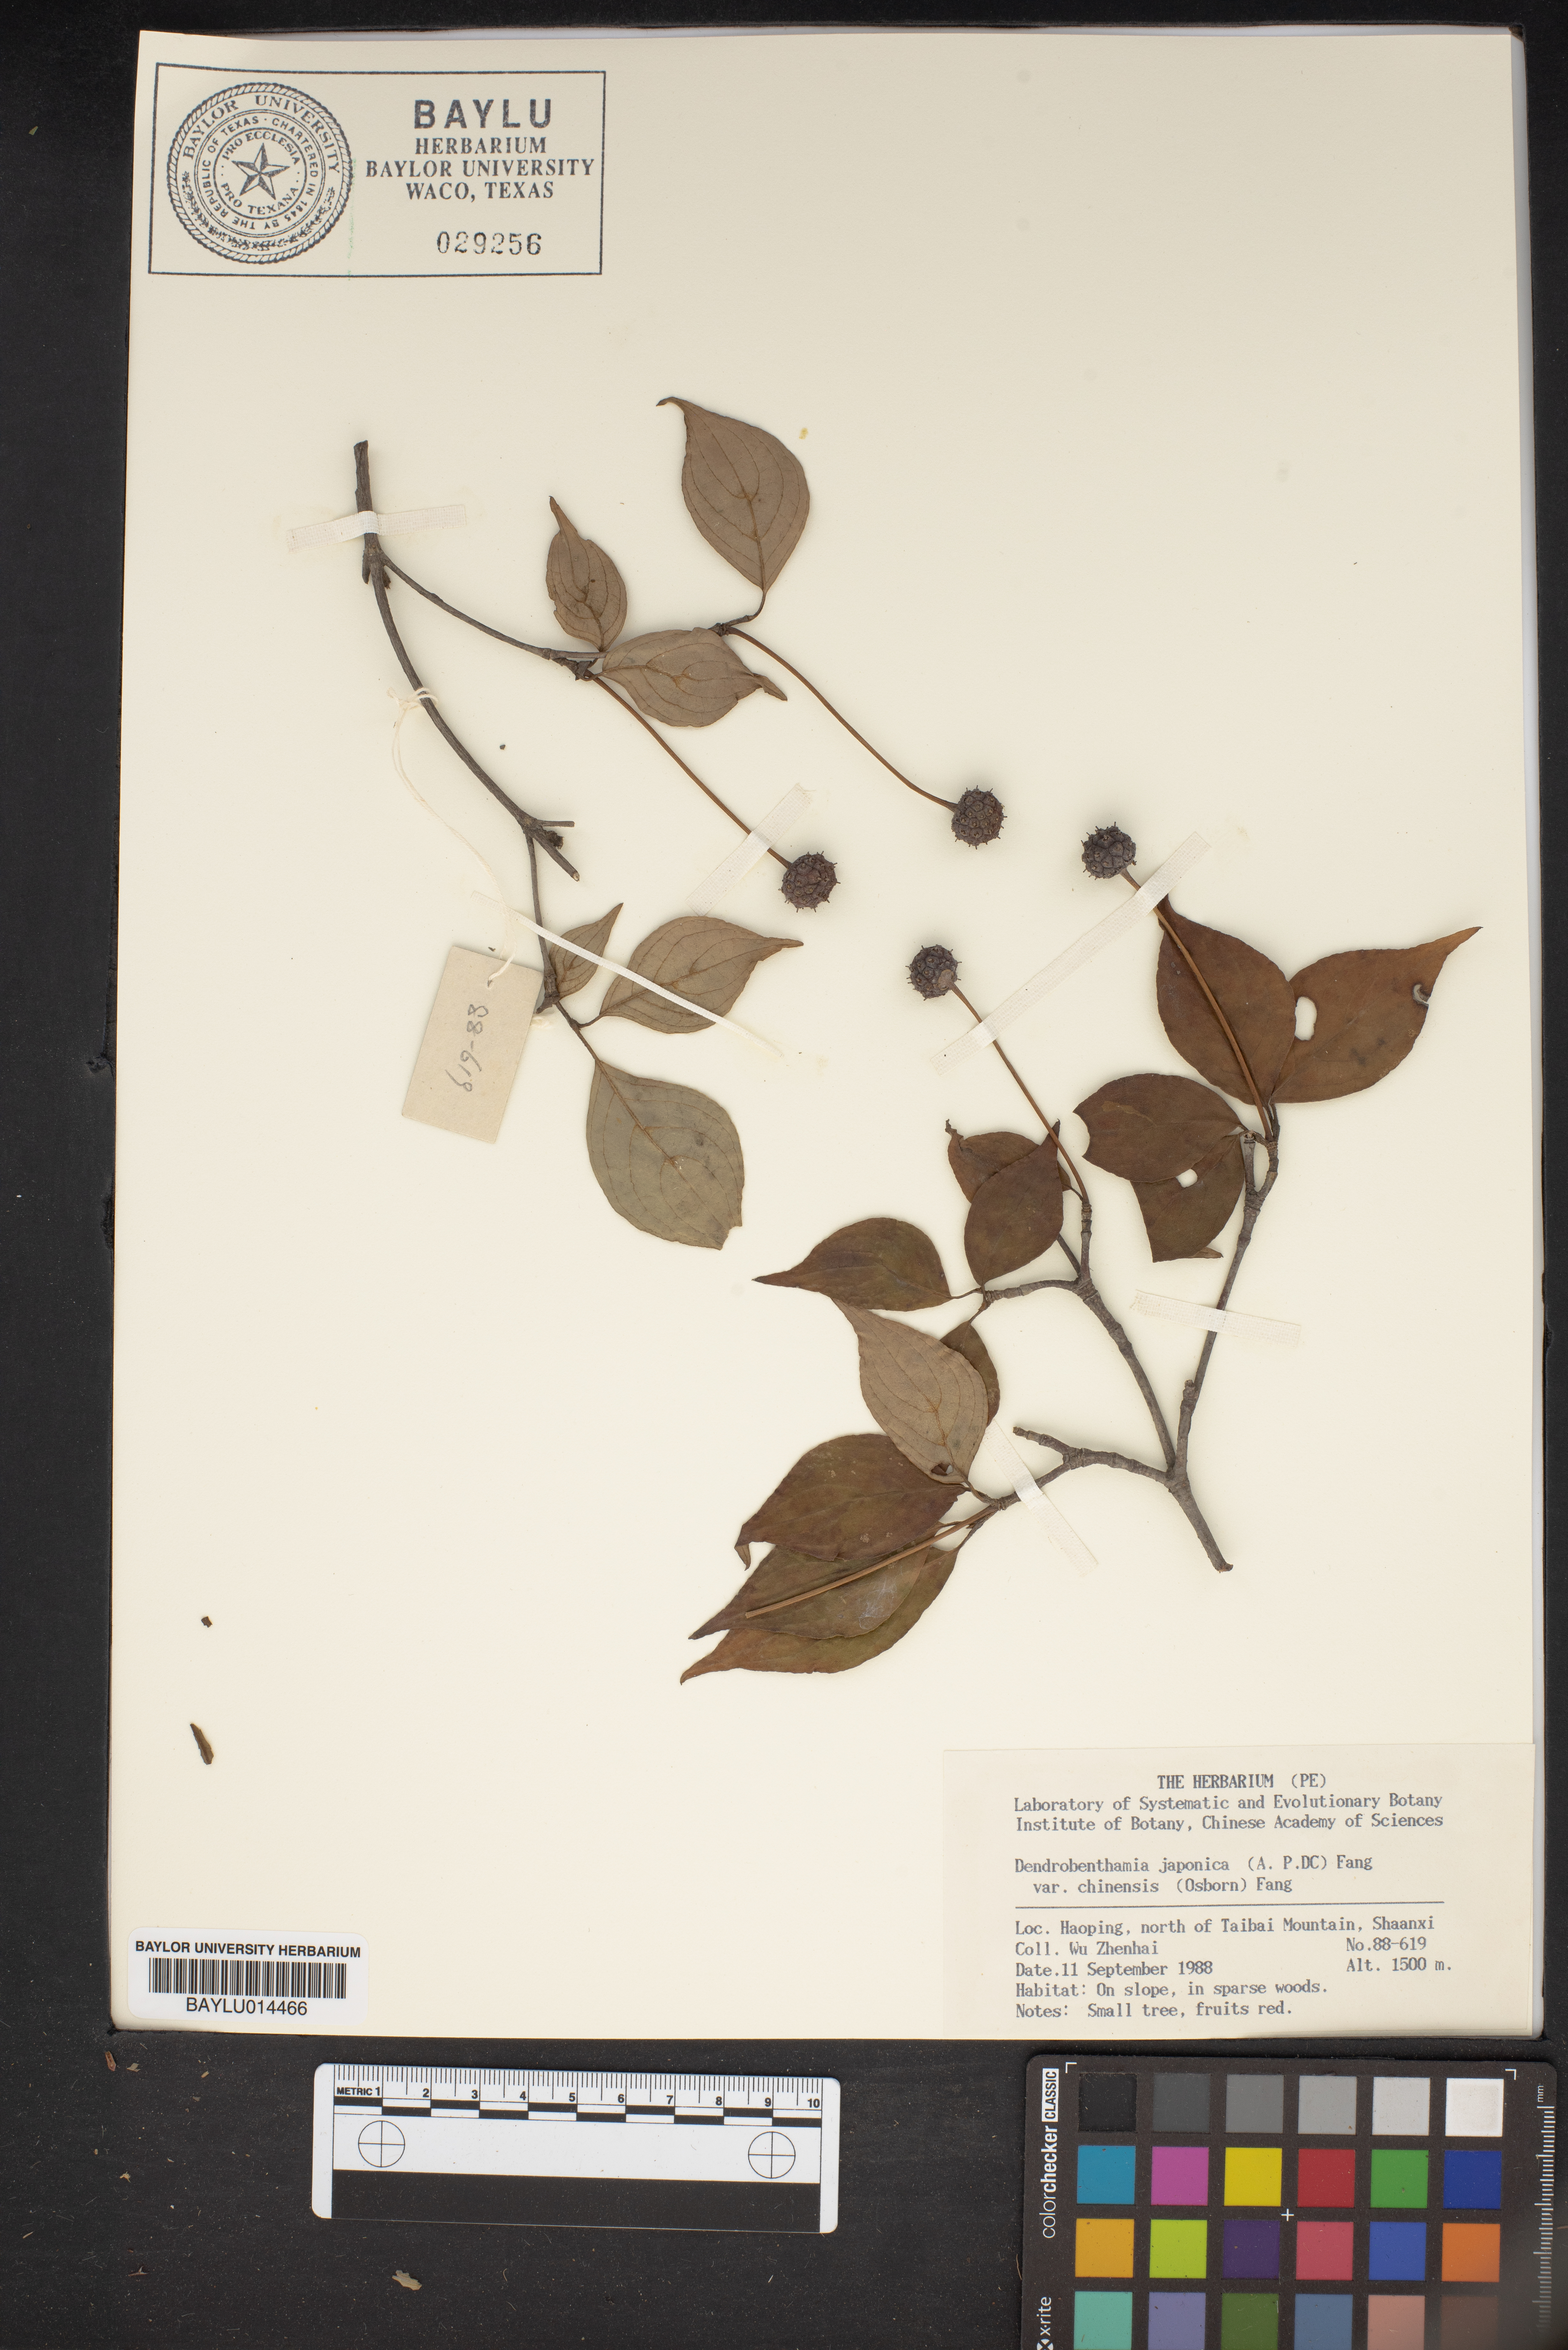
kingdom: Plantae
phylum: Tracheophyta
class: Magnoliopsida
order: Cornales
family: Cornaceae
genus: Cornus
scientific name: Cornus kousa
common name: Japanese dogwood
